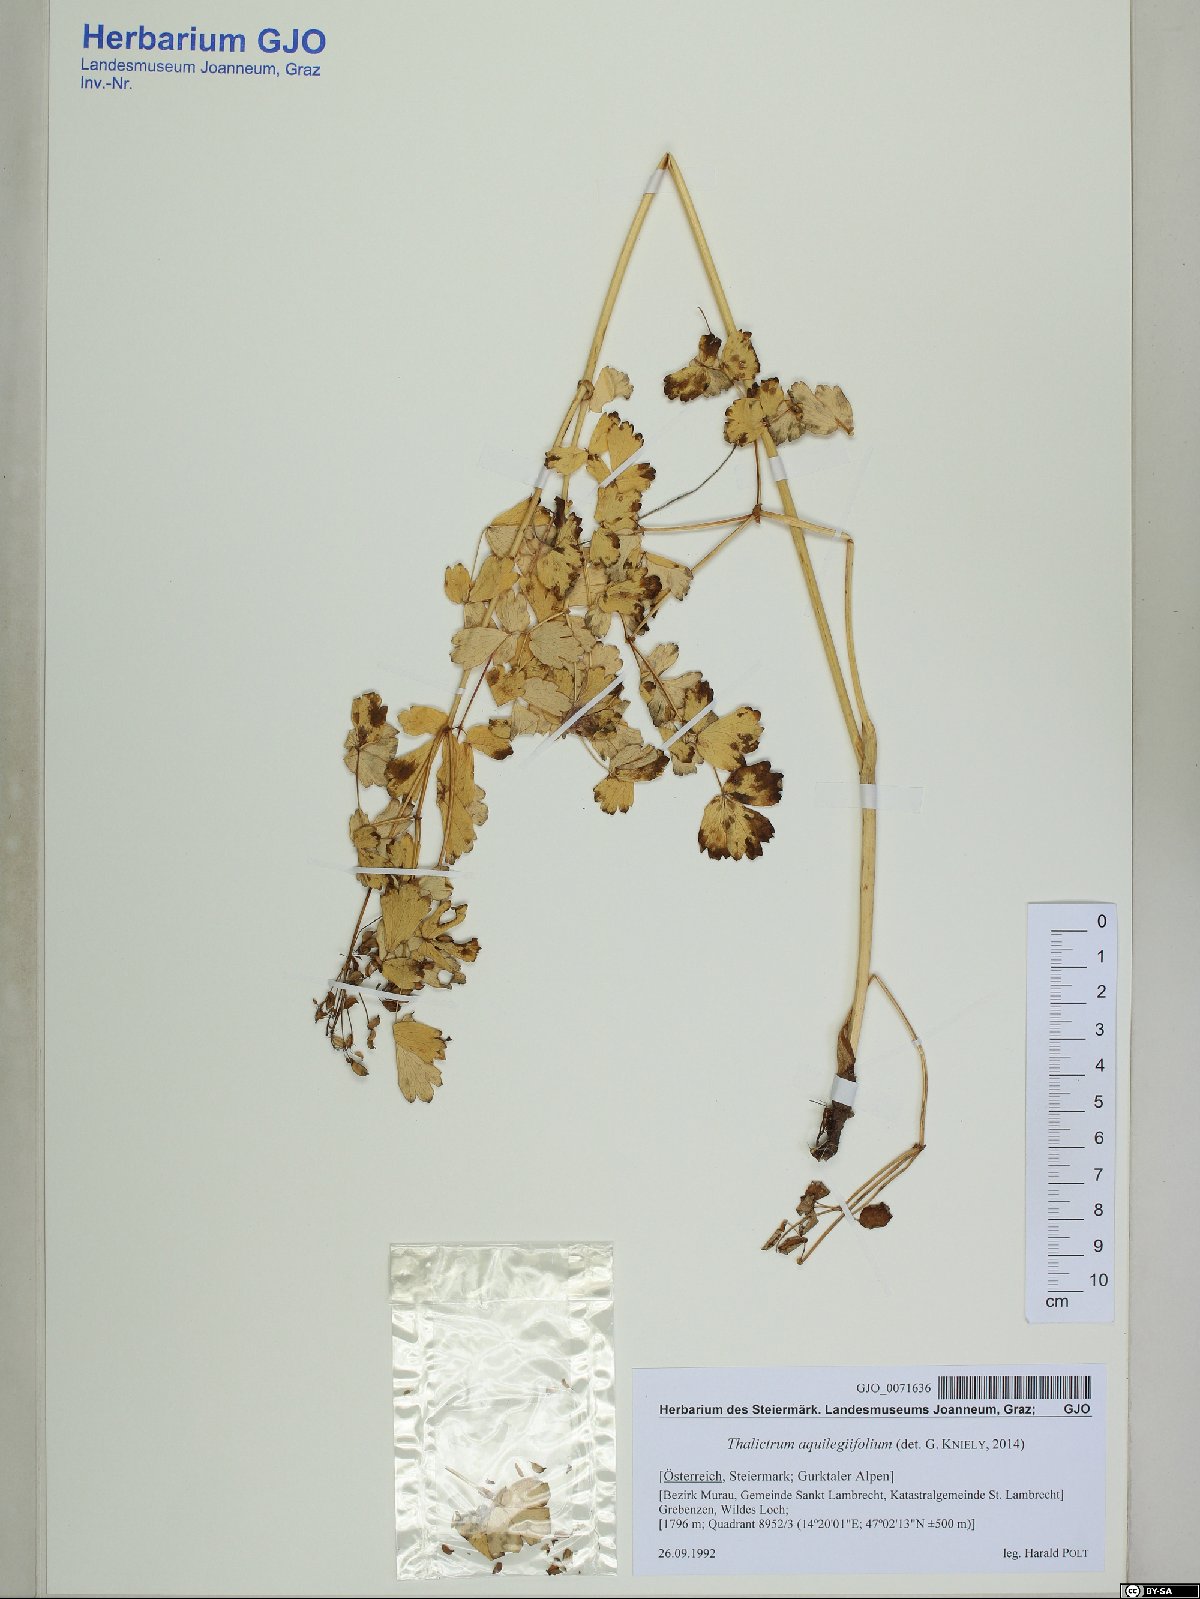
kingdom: Plantae
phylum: Tracheophyta
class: Magnoliopsida
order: Ranunculales
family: Ranunculaceae
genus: Thalictrum
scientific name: Thalictrum aquilegiifolium
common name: French meadow-rue
